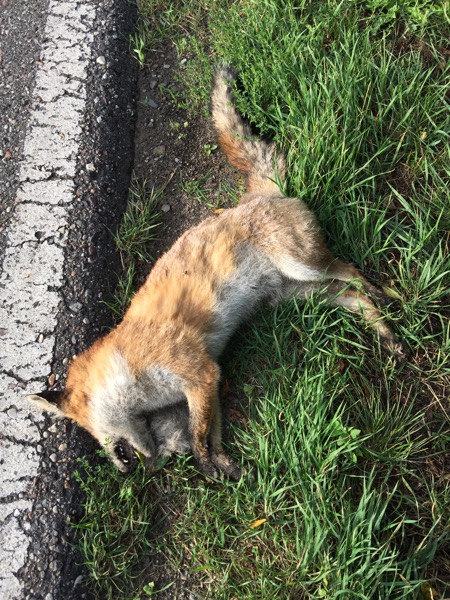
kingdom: Animalia
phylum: Chordata
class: Mammalia
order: Carnivora
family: Canidae
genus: Vulpes
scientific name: Vulpes vulpes
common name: Red fox
